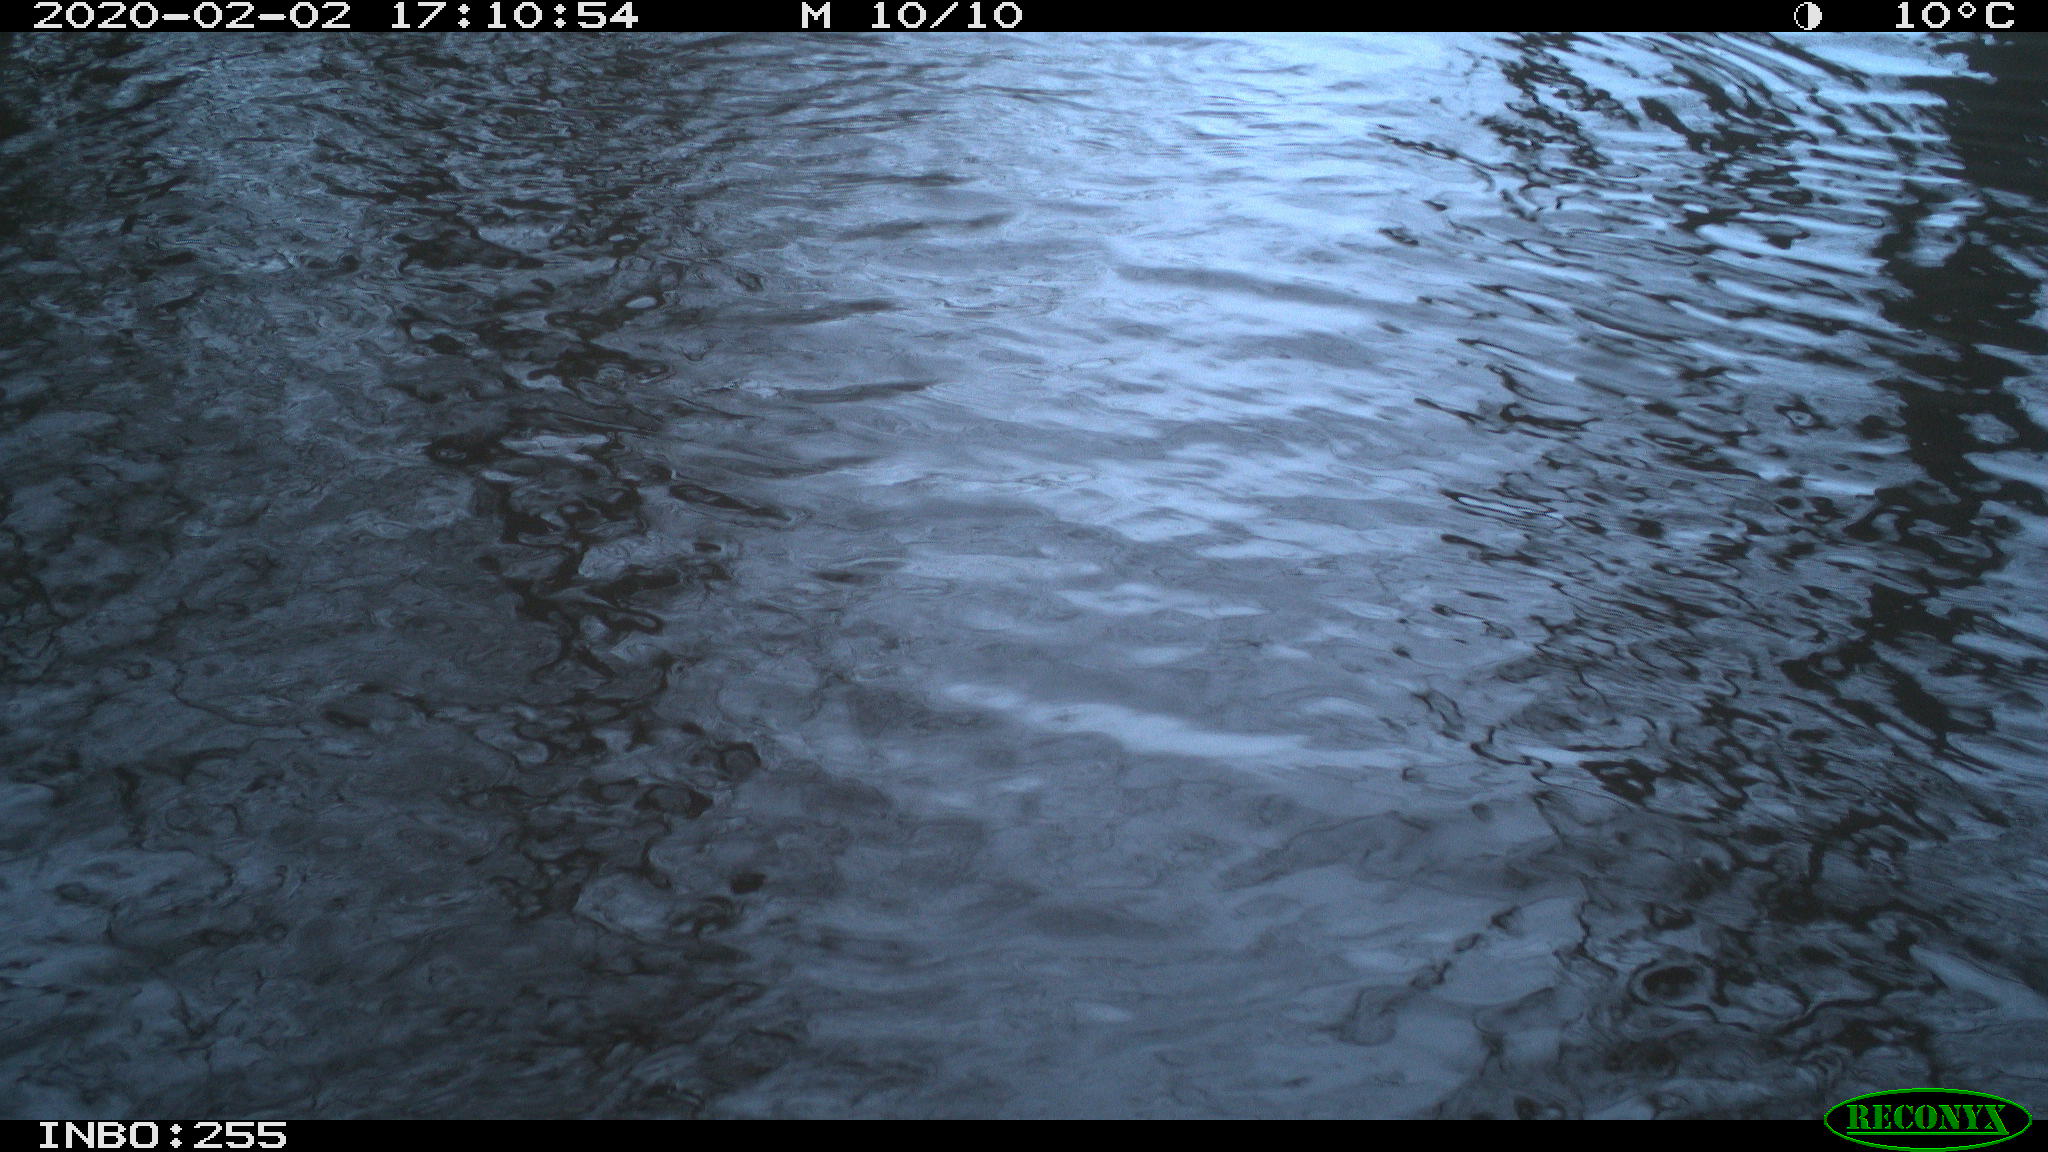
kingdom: Animalia
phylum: Chordata
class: Aves
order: Gruiformes
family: Rallidae
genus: Gallinula
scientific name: Gallinula chloropus
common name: Common moorhen
